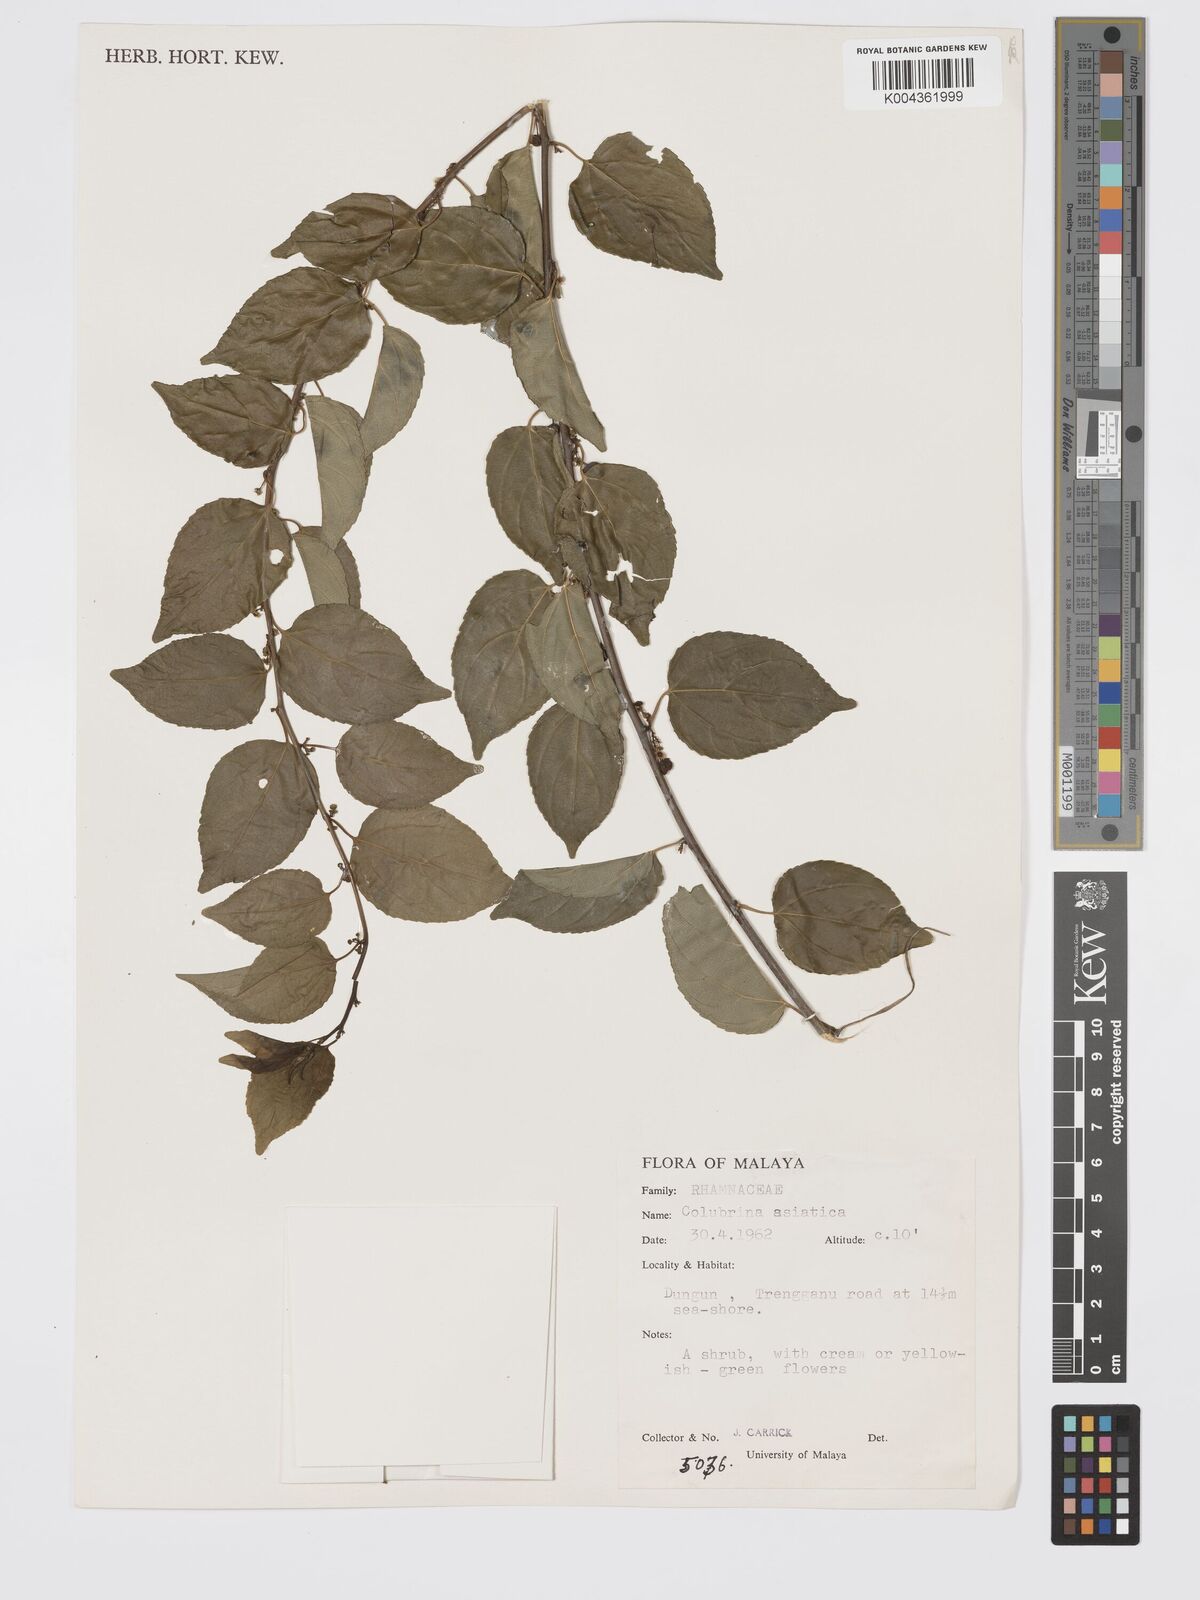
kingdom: Plantae
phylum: Tracheophyta
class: Magnoliopsida
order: Rosales
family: Rhamnaceae
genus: Colubrina
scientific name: Colubrina asiatica
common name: Asian nakedwood
